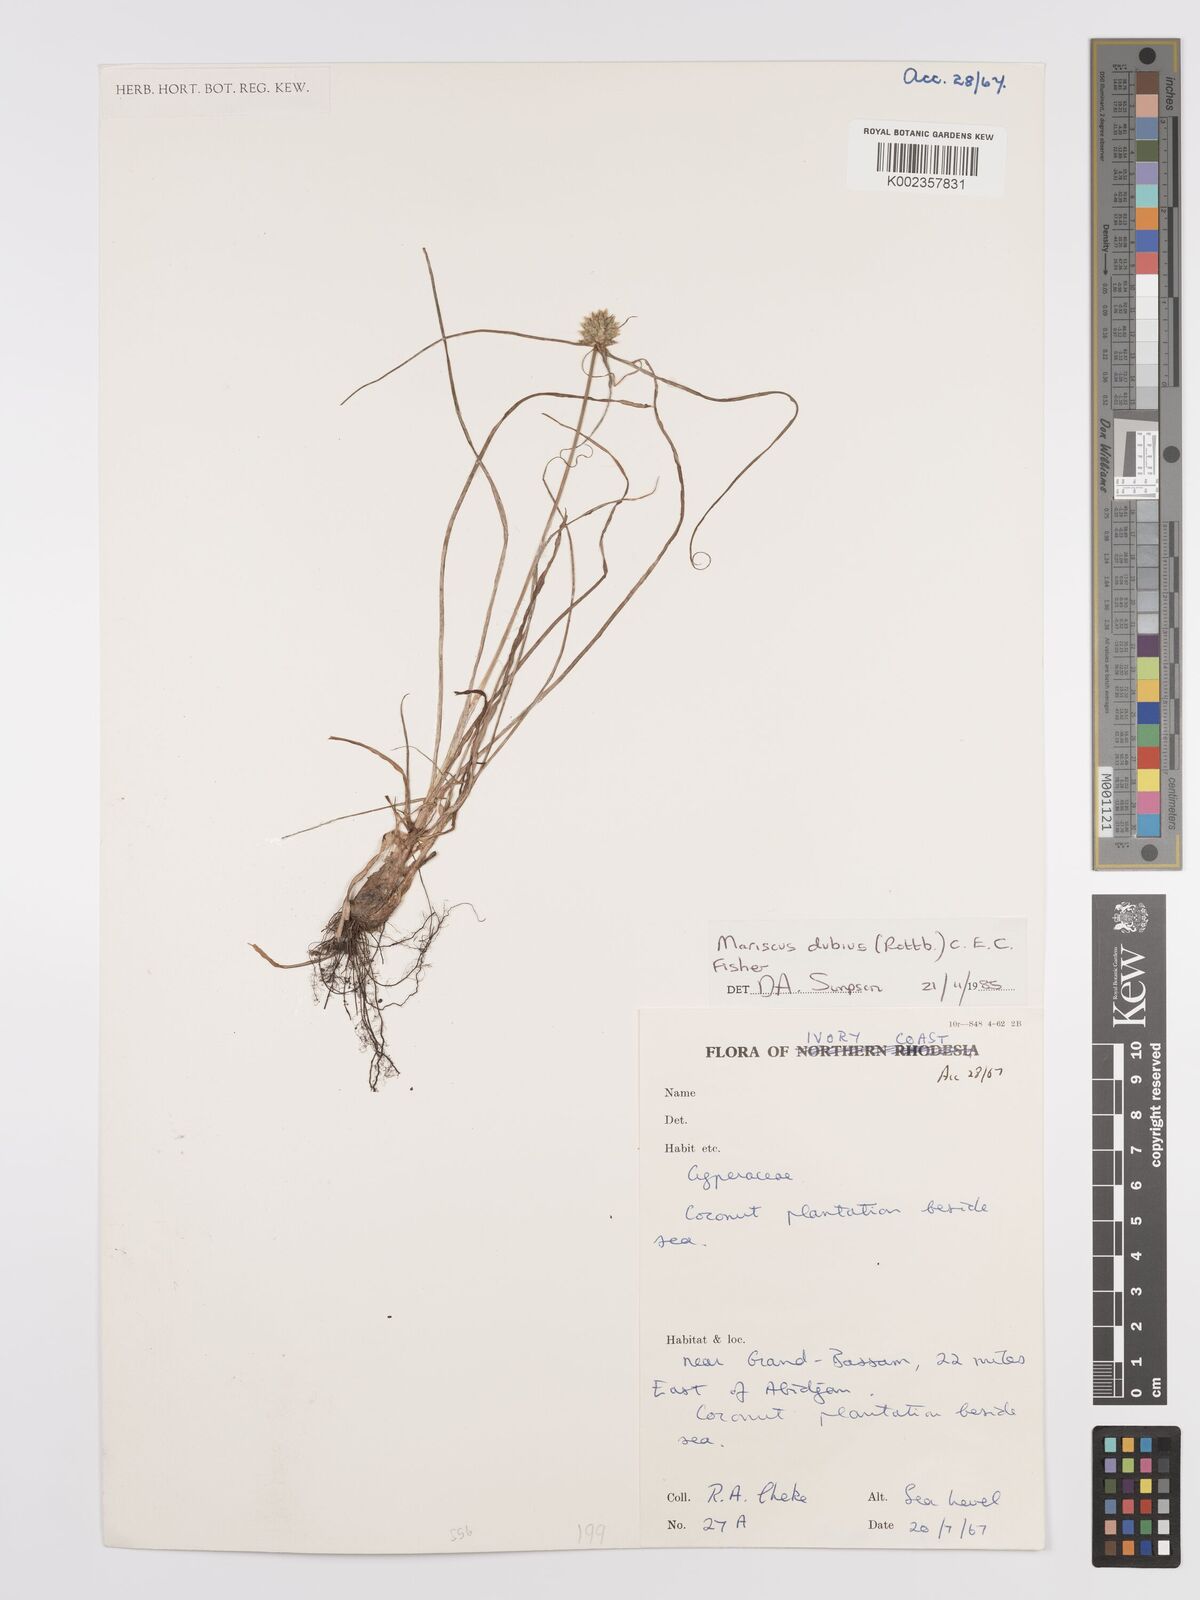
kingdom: Plantae
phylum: Tracheophyta
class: Liliopsida
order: Poales
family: Cyperaceae
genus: Cyperus
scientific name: Cyperus dubius
